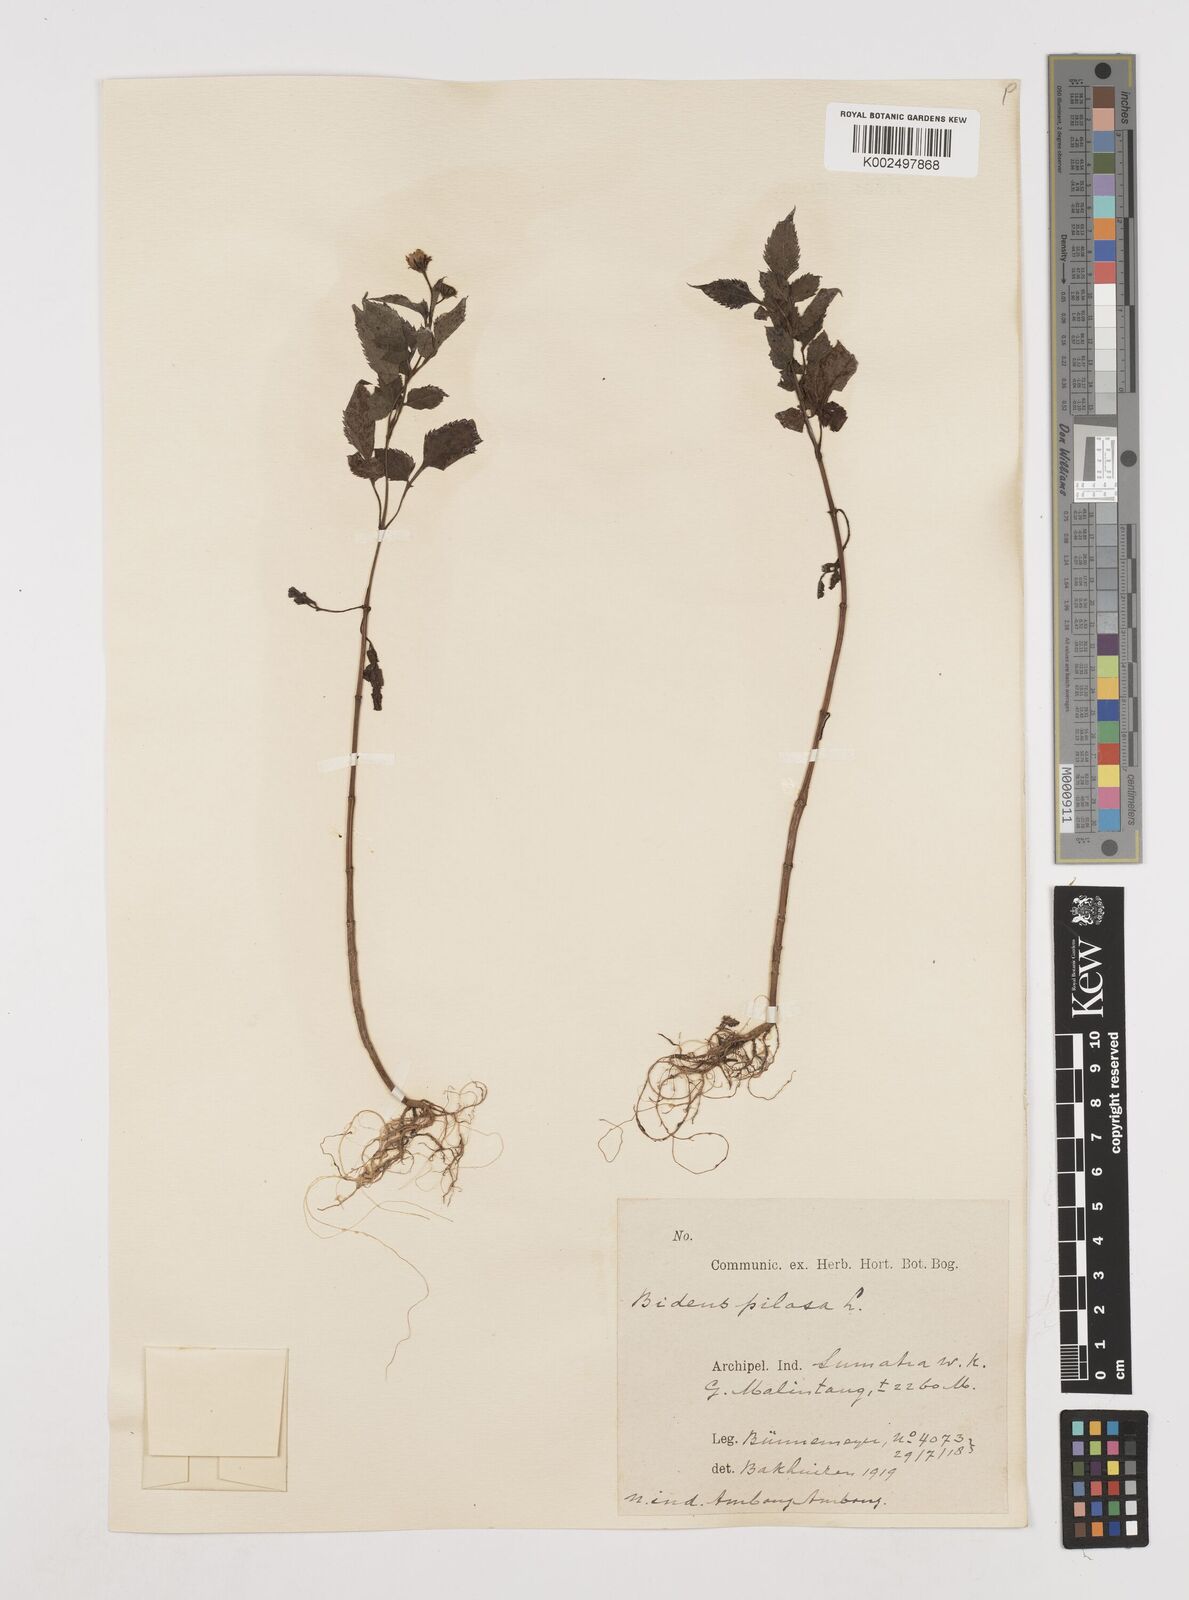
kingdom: Plantae
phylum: Tracheophyta
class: Magnoliopsida
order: Asterales
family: Asteraceae
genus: Bidens
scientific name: Bidens pilosa
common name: Black-jack
